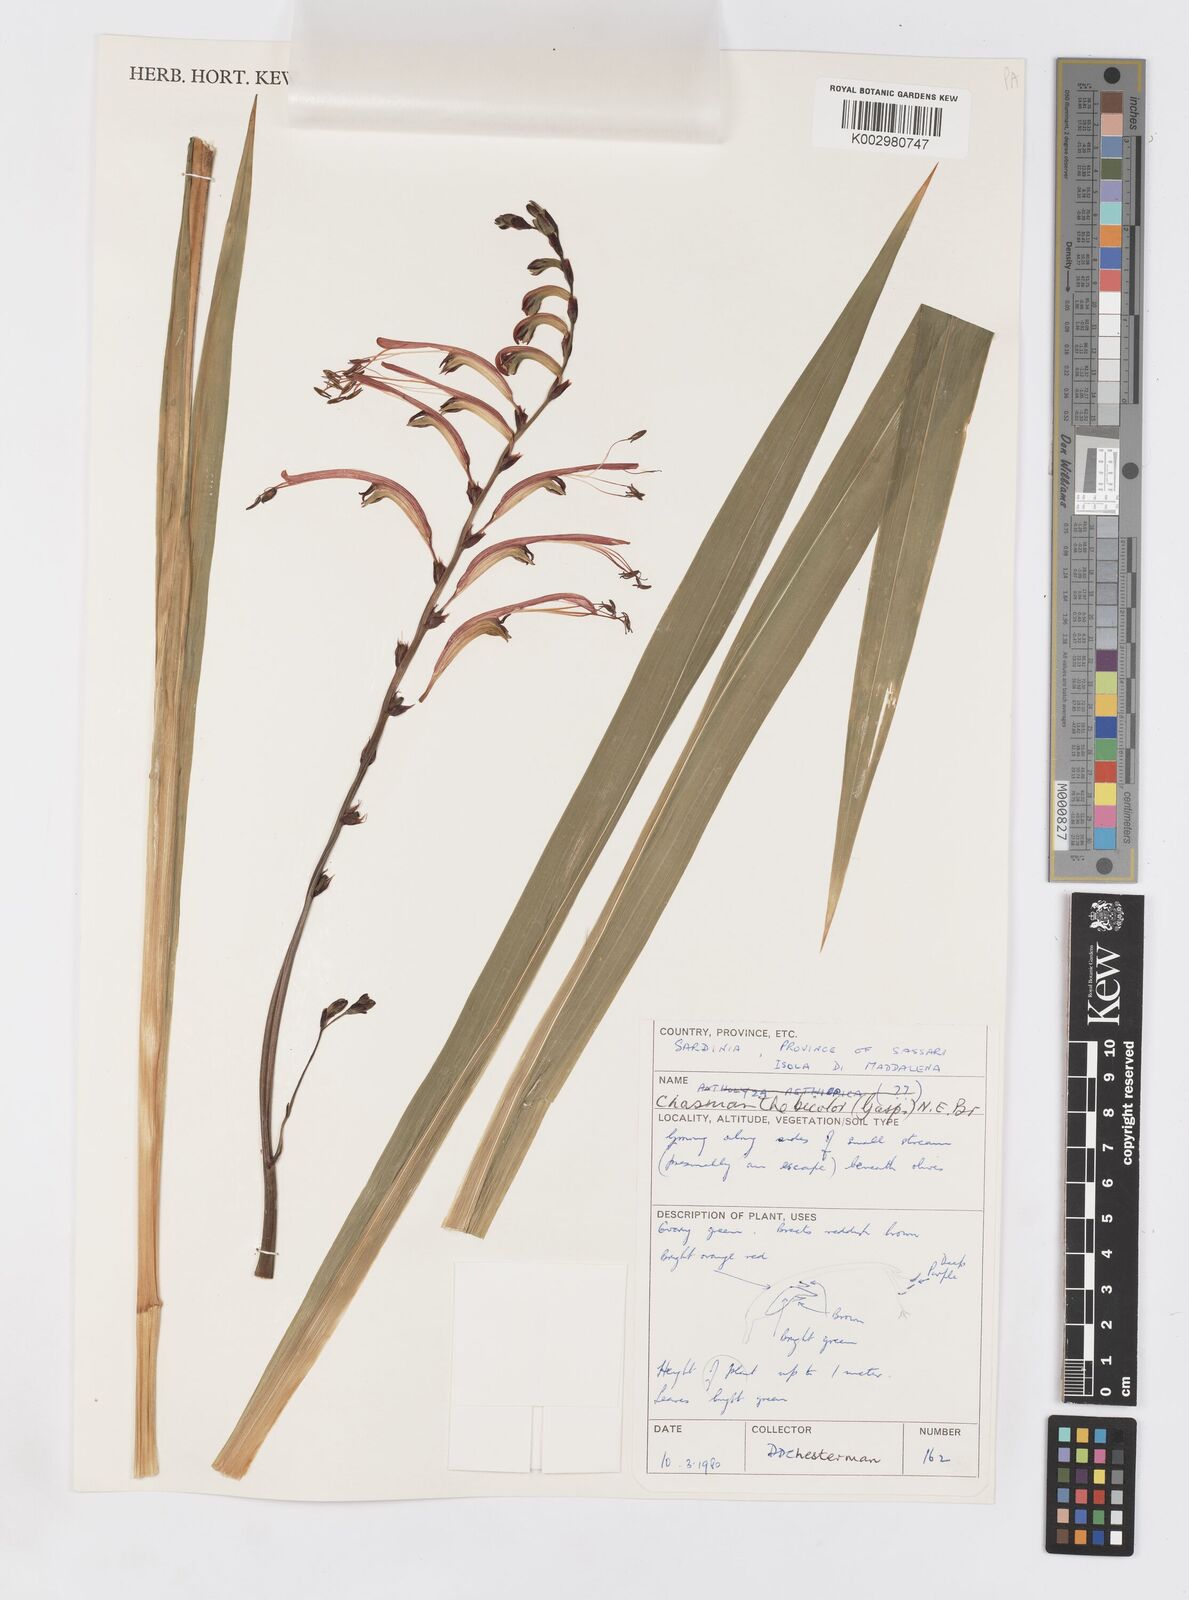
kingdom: Plantae
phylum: Tracheophyta
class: Liliopsida
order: Asparagales
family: Iridaceae
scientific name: Iridaceae
